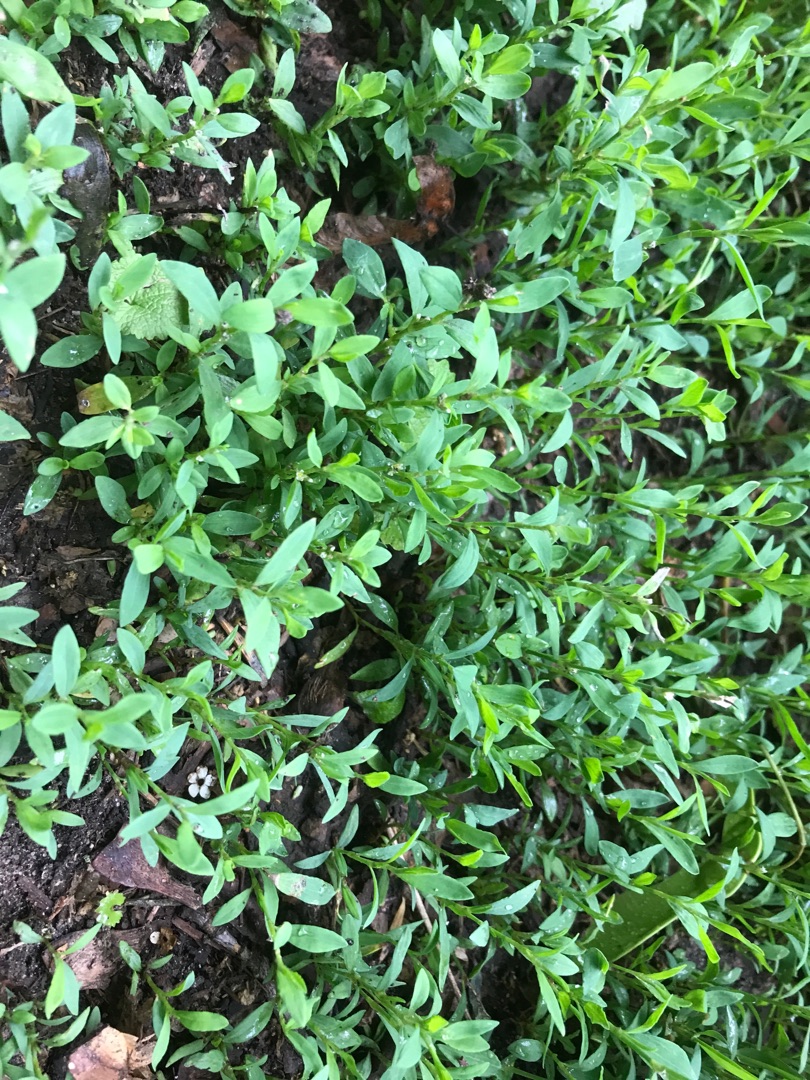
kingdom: Plantae
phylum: Tracheophyta
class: Magnoliopsida
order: Caryophyllales
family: Polygonaceae
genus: Polygonum
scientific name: Polygonum aviculare
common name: Vej-pileurt
